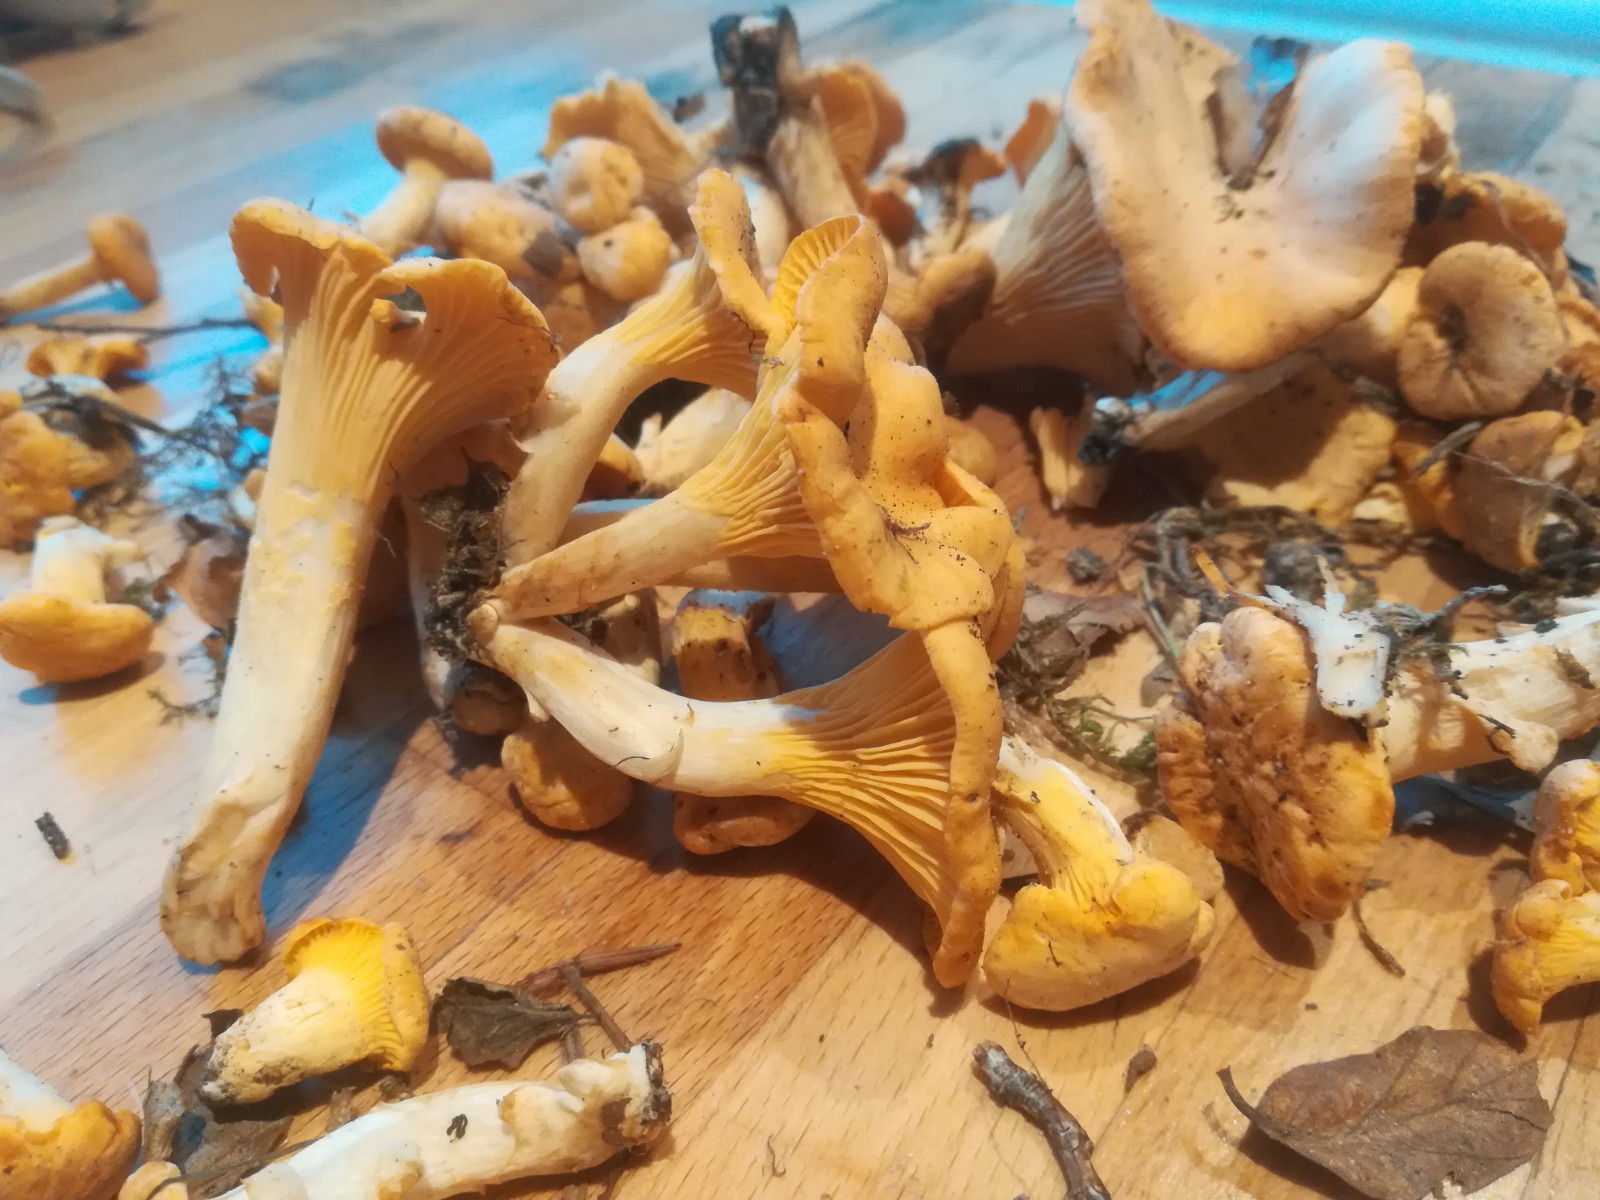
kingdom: Fungi
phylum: Basidiomycota
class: Agaricomycetes
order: Cantharellales
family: Hydnaceae
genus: Cantharellus
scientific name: Cantharellus cibarius
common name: almindelig kantarel
